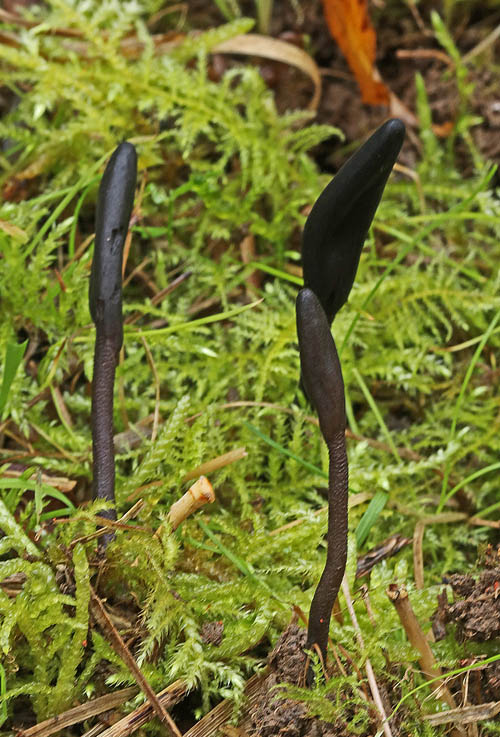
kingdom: Fungi
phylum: Ascomycota
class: Geoglossomycetes
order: Geoglossales
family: Geoglossaceae
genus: Geoglossum
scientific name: Geoglossum fallax
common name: småskællet jordtunge
